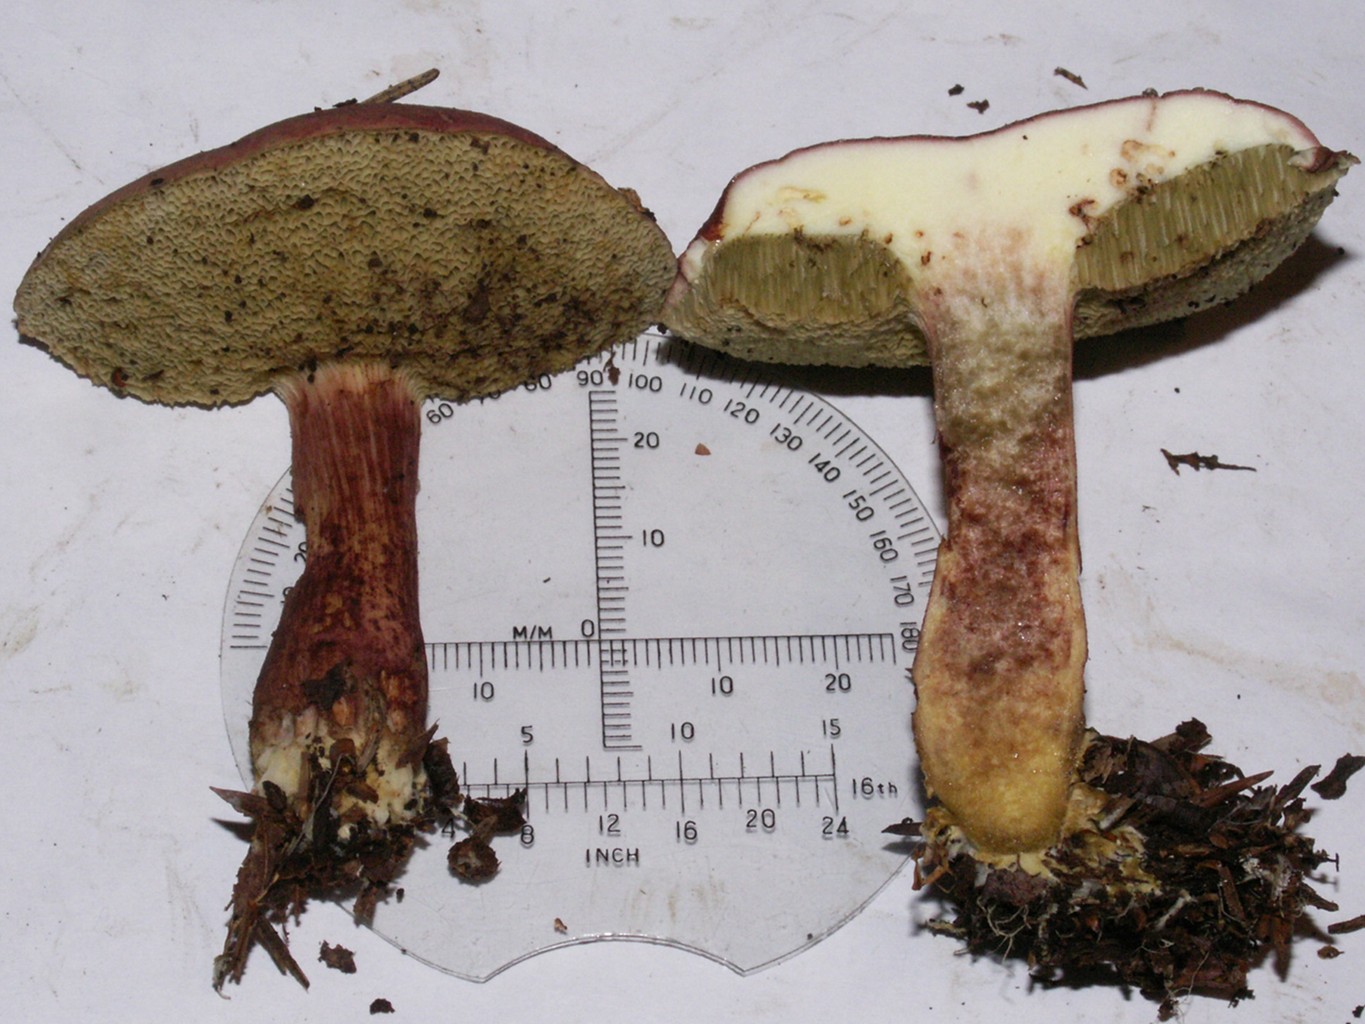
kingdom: Fungi
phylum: Basidiomycota
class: Agaricomycetes
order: Boletales
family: Boletaceae
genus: Xerocomellus
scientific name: Xerocomellus pruinatus
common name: dugget rørhat
